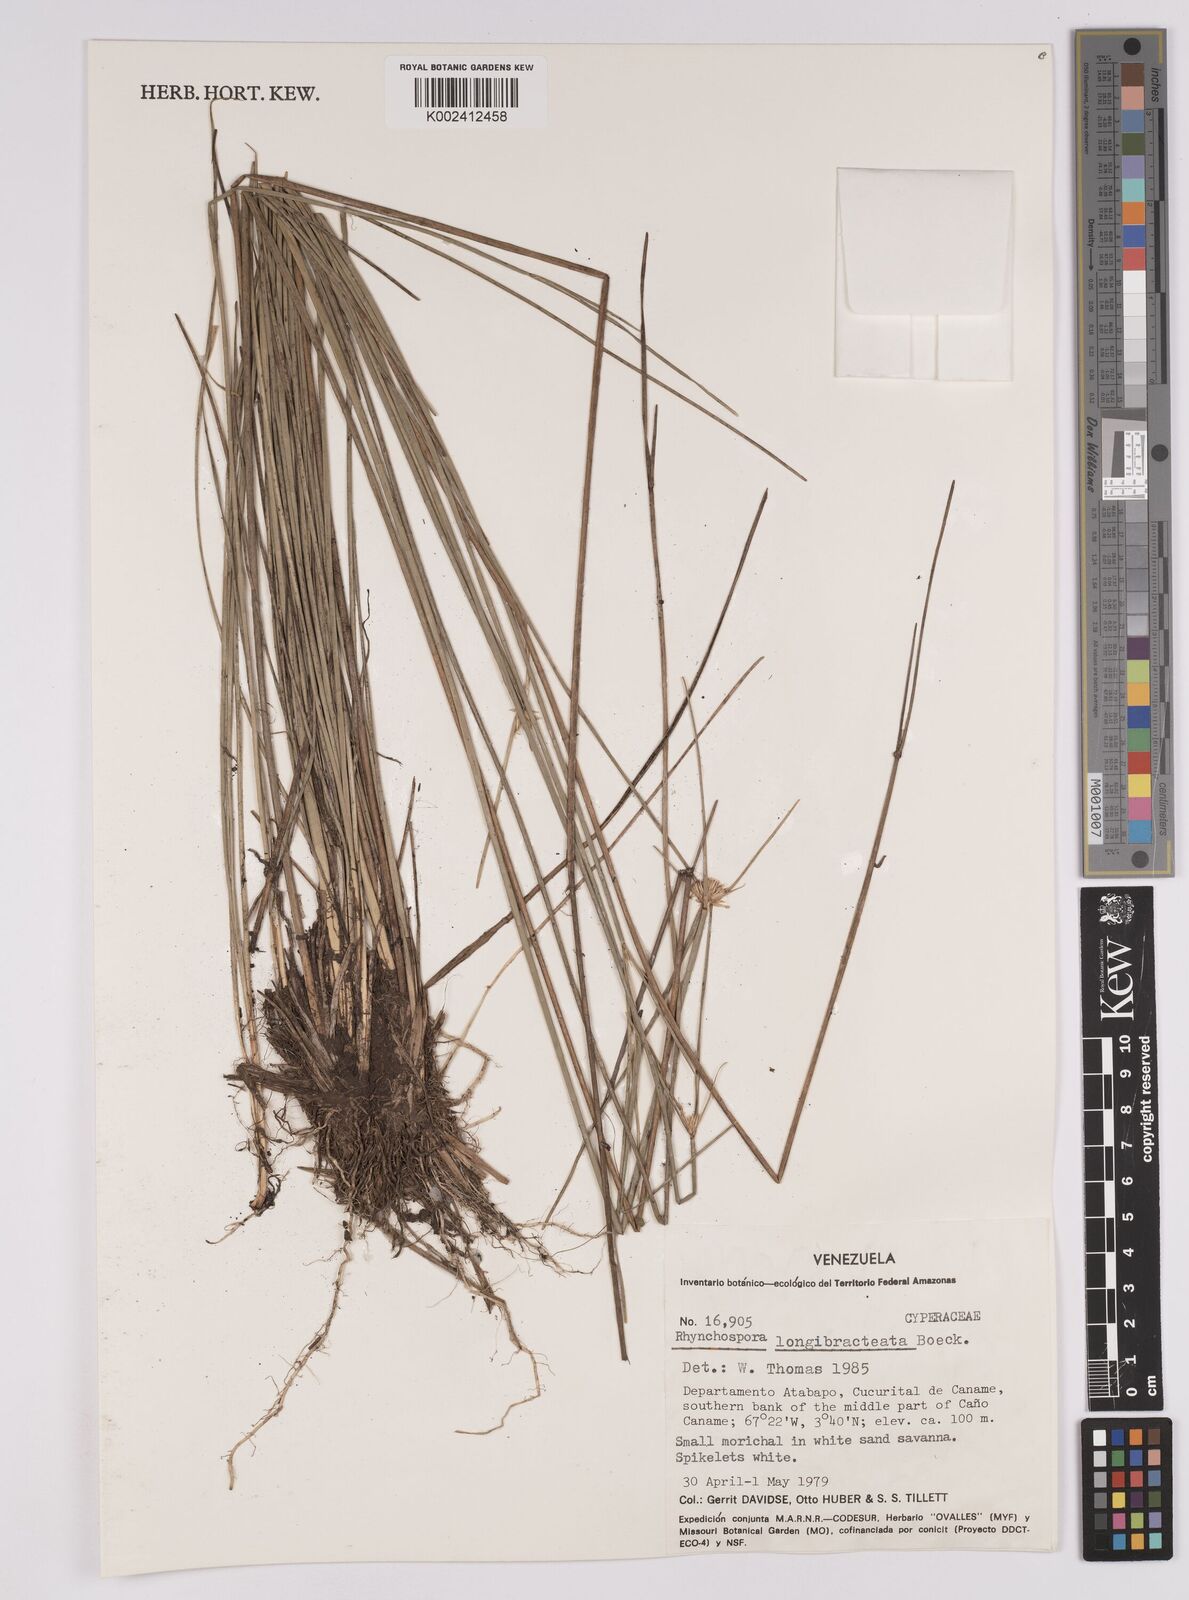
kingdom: Plantae
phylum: Tracheophyta
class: Liliopsida
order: Poales
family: Cyperaceae
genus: Rhynchospora
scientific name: Rhynchospora longibracteata
